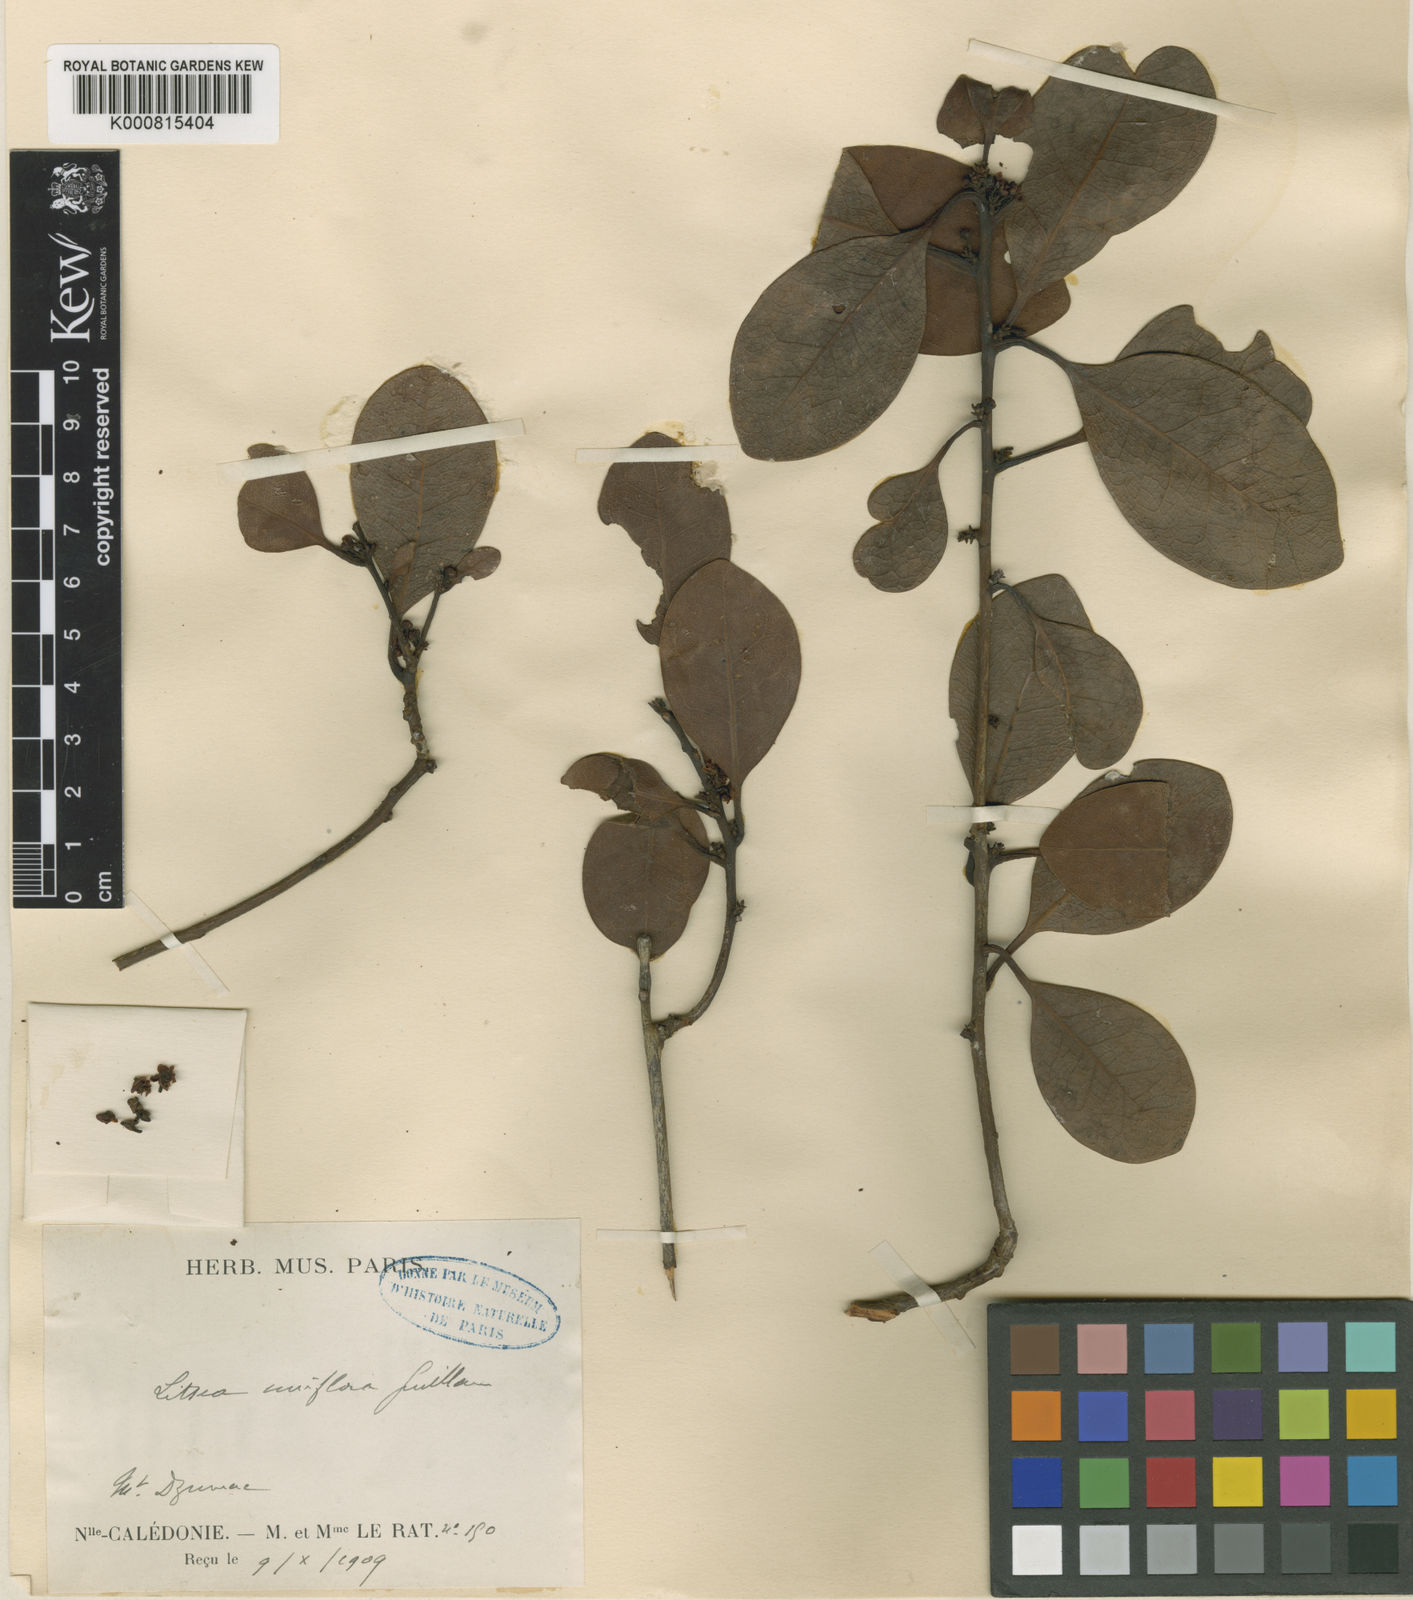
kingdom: Plantae
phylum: Tracheophyta
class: Magnoliopsida
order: Laurales
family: Lauraceae
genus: Litsea
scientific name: Litsea uniflora
